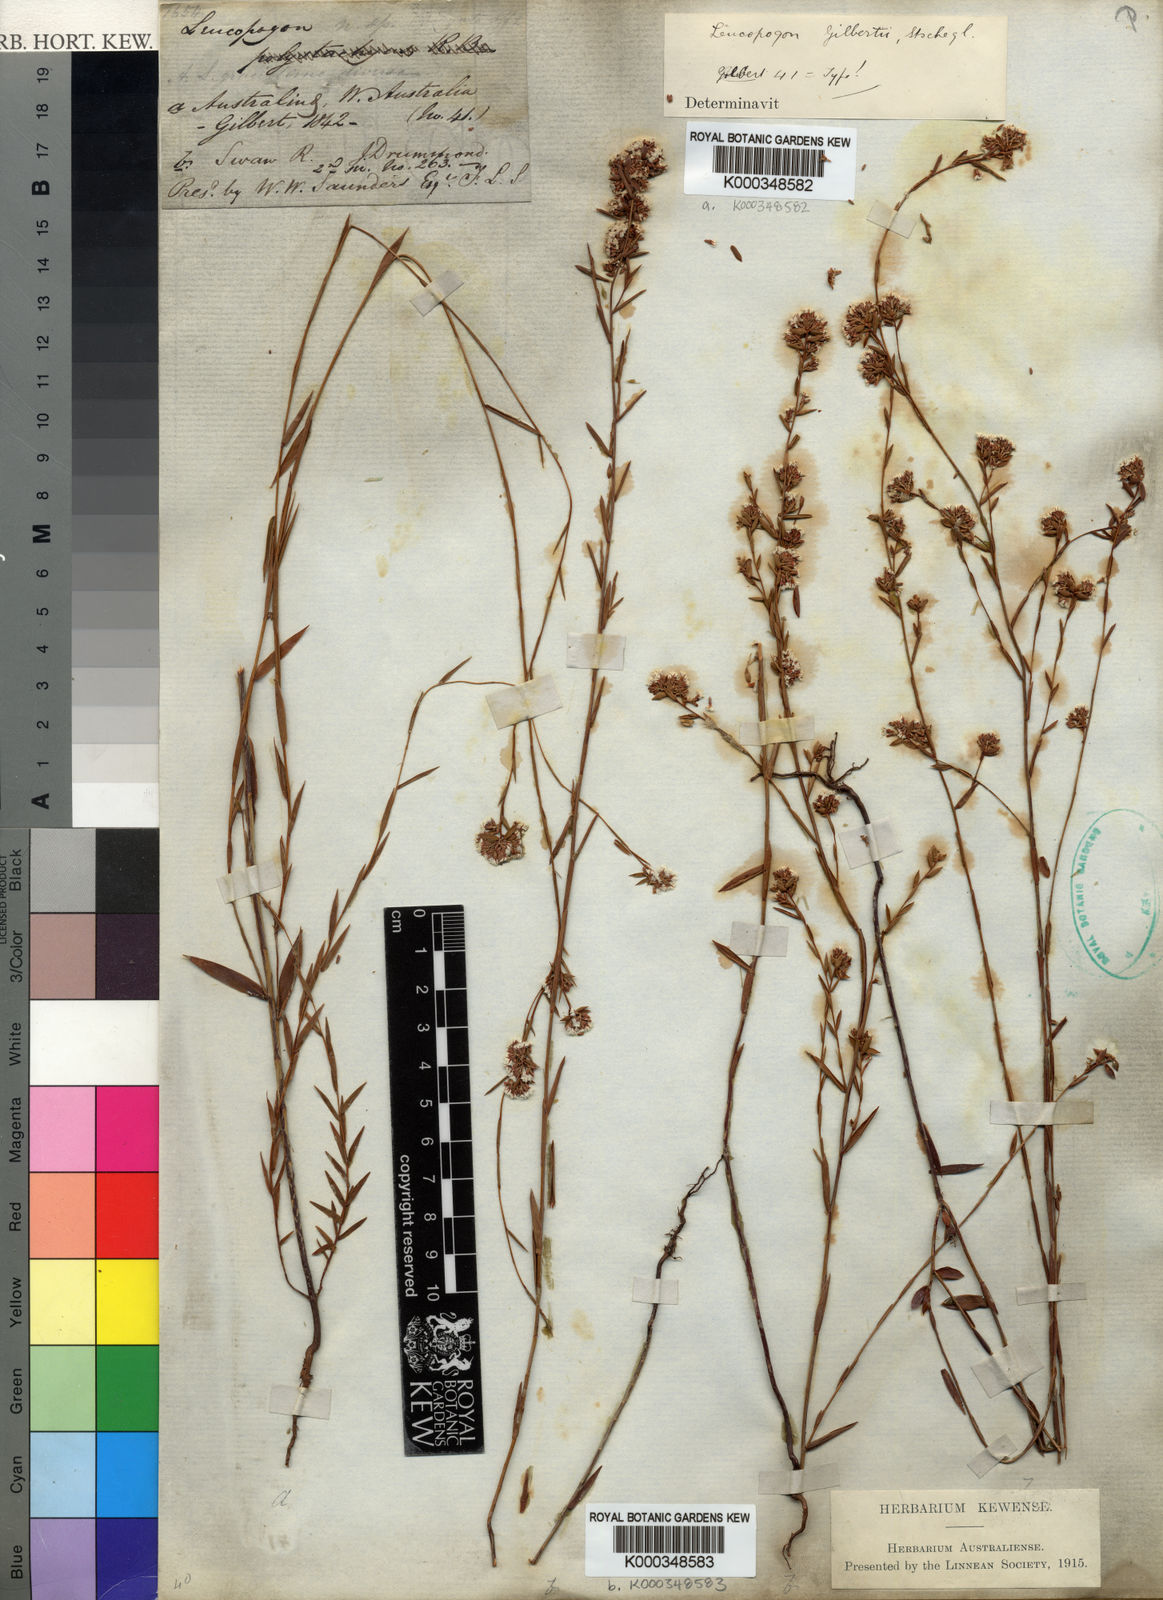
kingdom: Plantae
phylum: Tracheophyta
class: Magnoliopsida
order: Ericales
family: Ericaceae
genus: Leucopogon
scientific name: Leucopogon gilbertii
